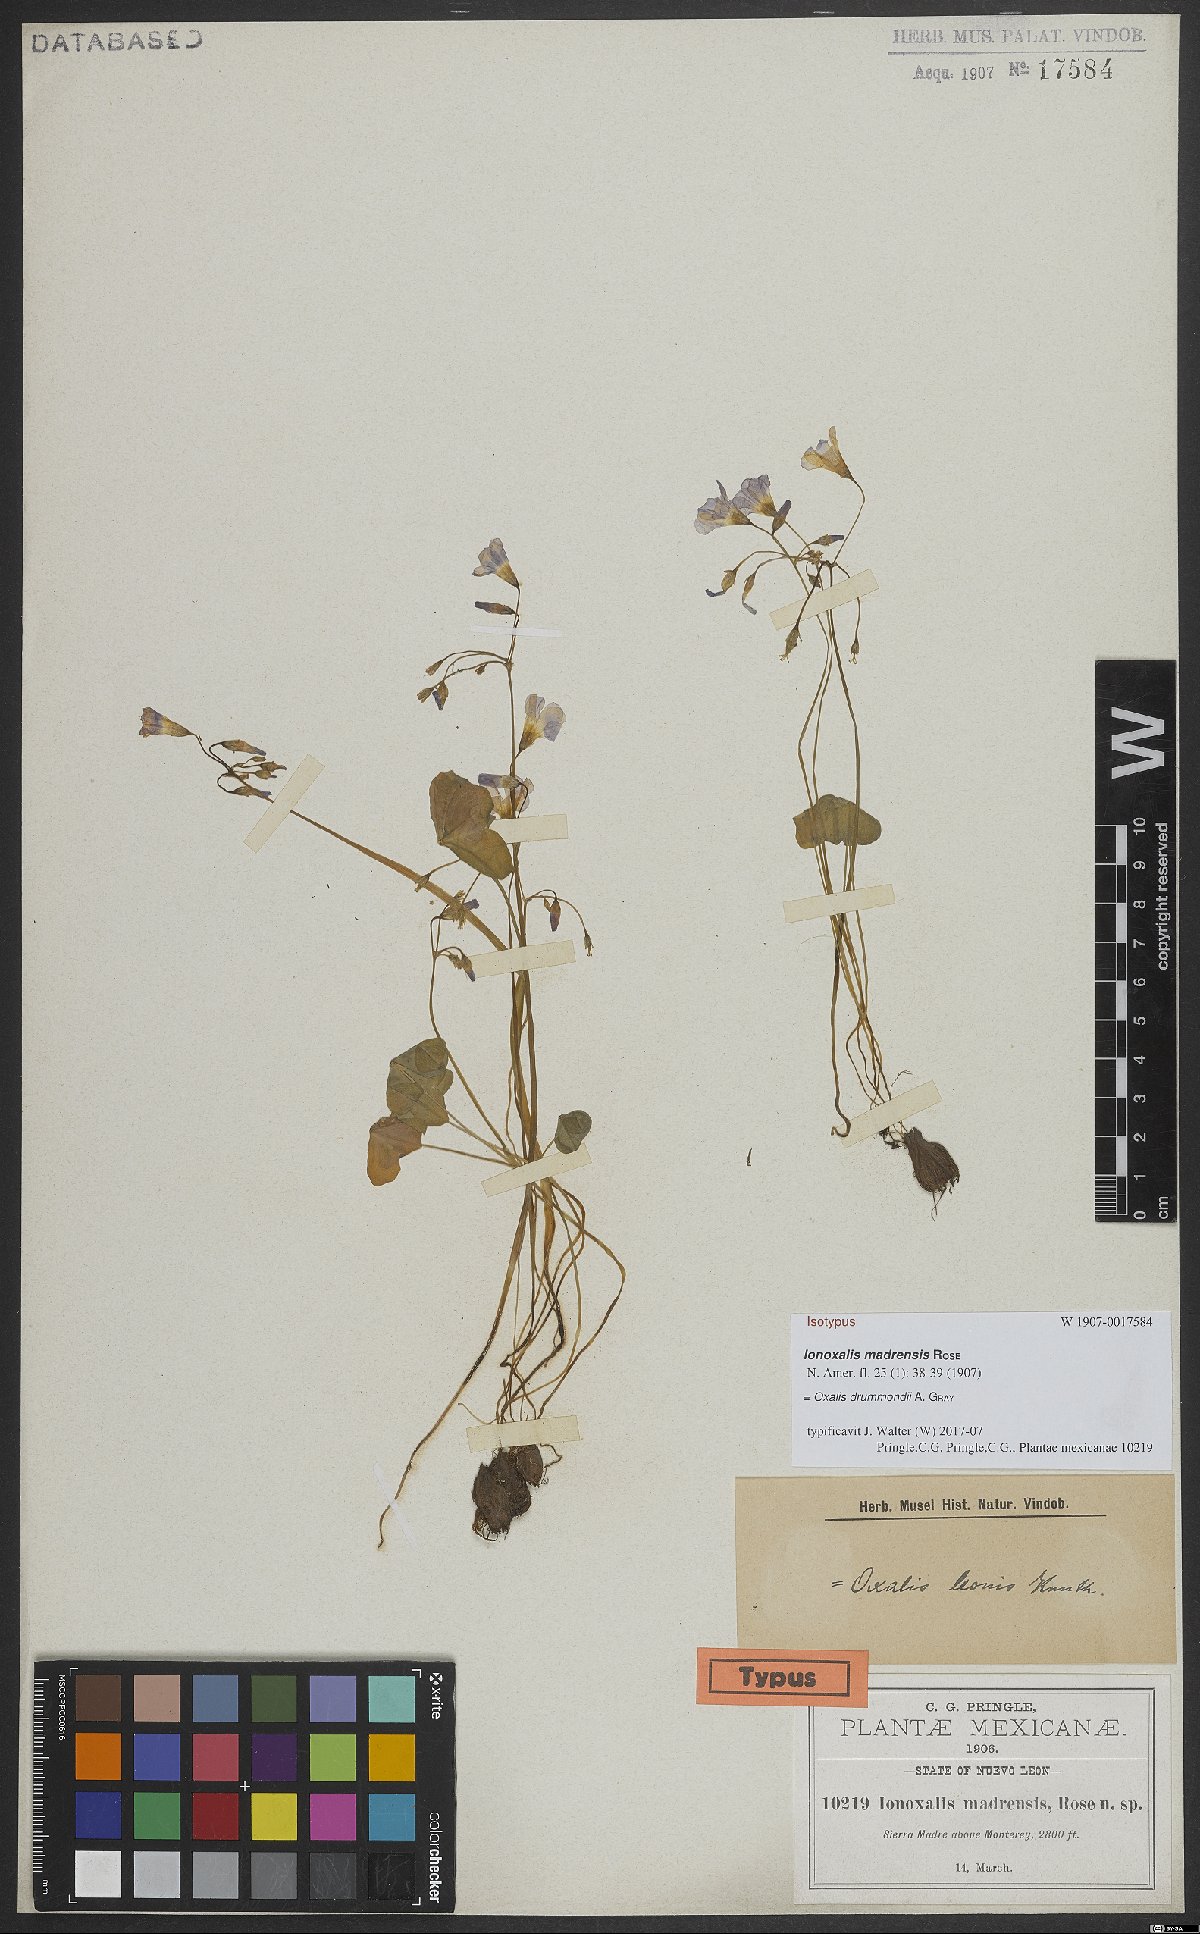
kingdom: Plantae
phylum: Tracheophyta
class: Magnoliopsida
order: Oxalidales
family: Oxalidaceae
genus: Oxalis
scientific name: Oxalis drummondii
